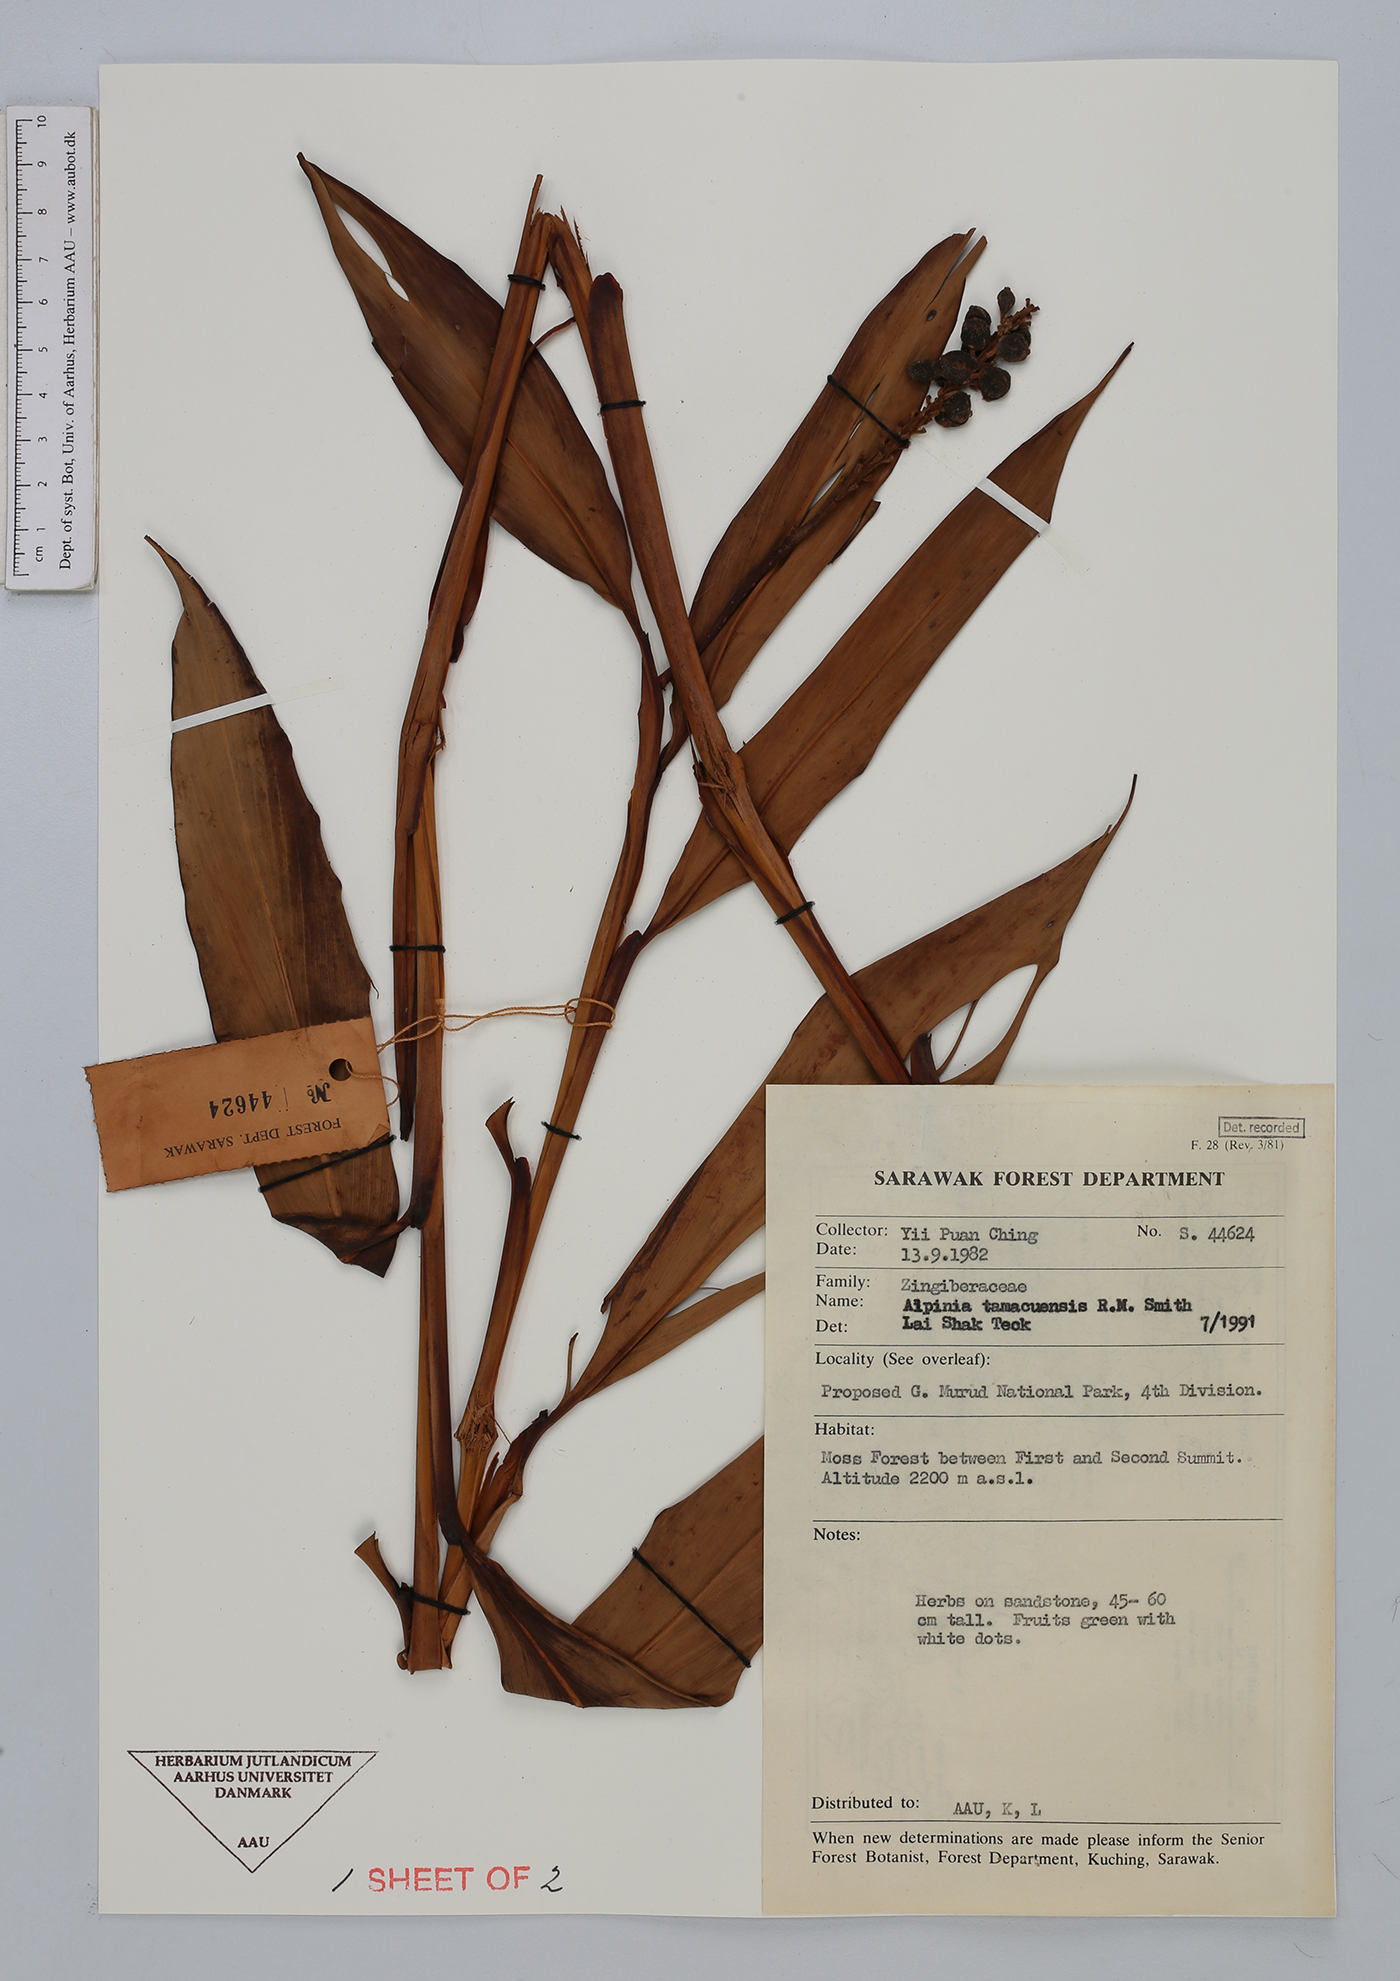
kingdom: Plantae
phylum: Tracheophyta
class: Liliopsida
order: Zingiberales
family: Zingiberaceae
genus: Alpinia
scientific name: Alpinia tamacuensis
